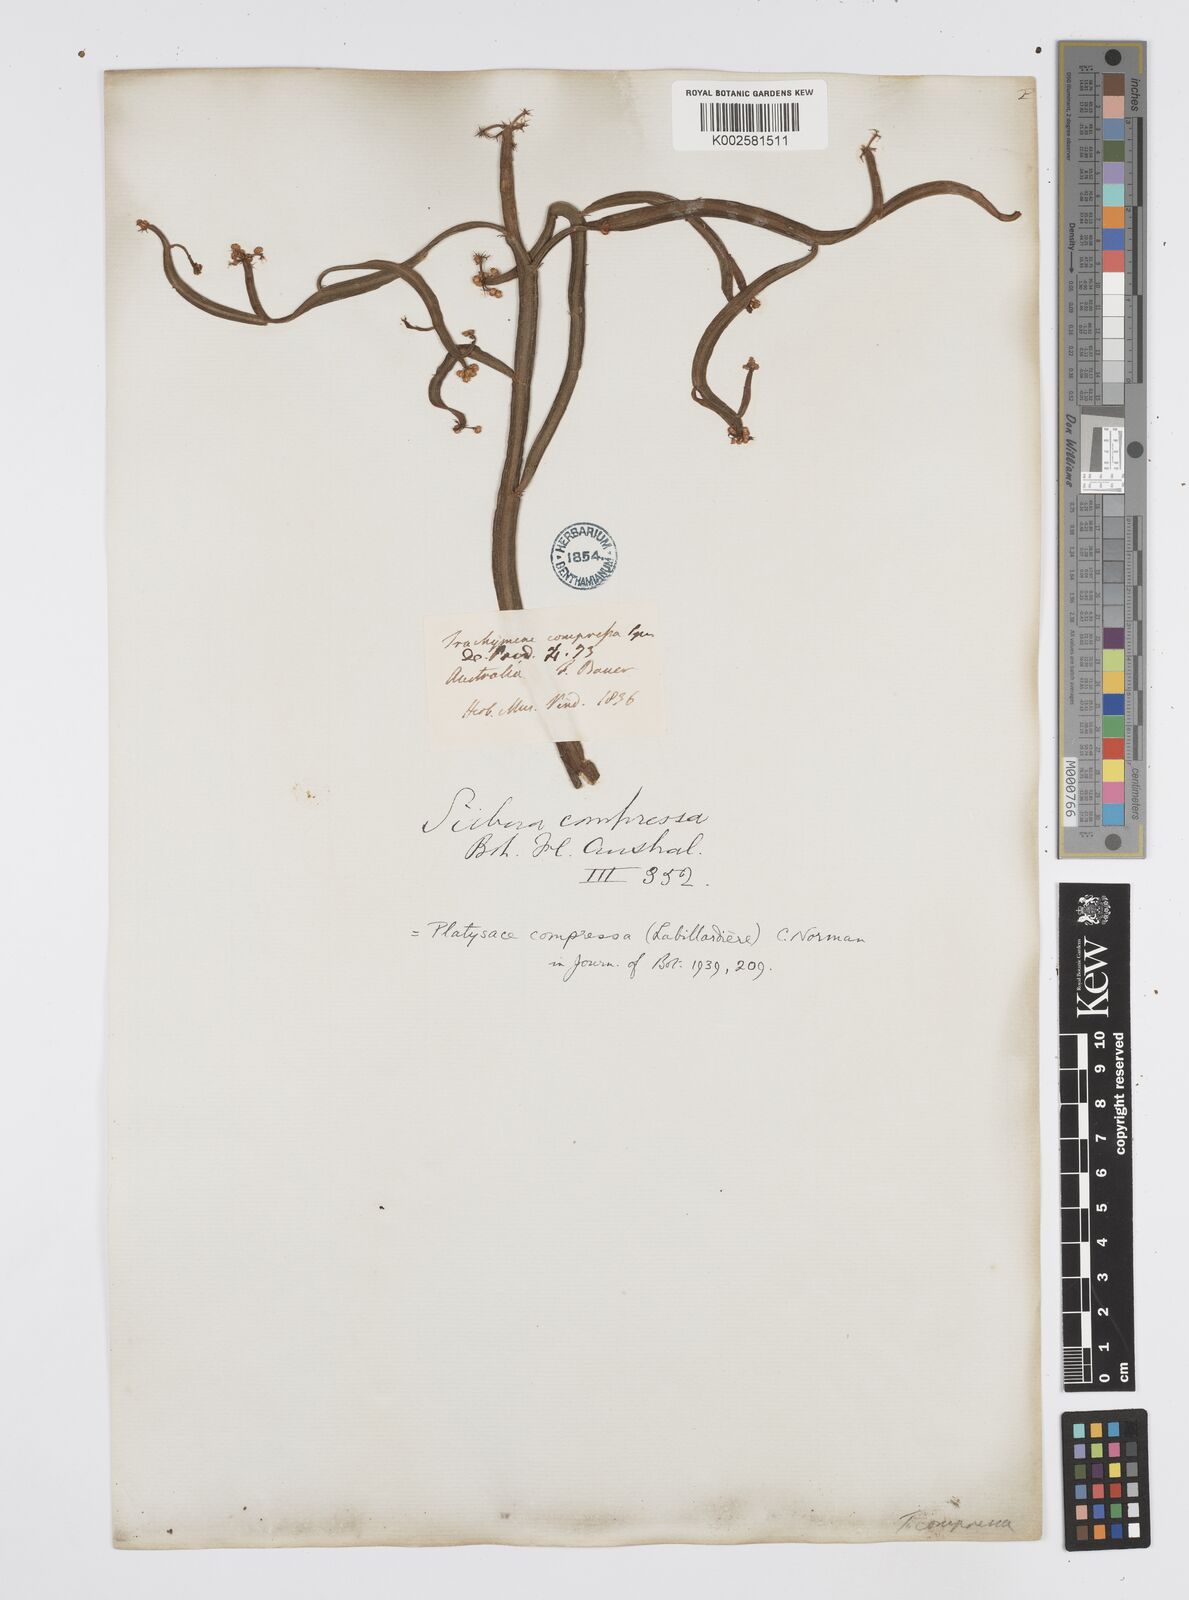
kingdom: Plantae
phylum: Tracheophyta
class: Magnoliopsida
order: Apiales
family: Apiaceae
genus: Centella
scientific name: Centella
